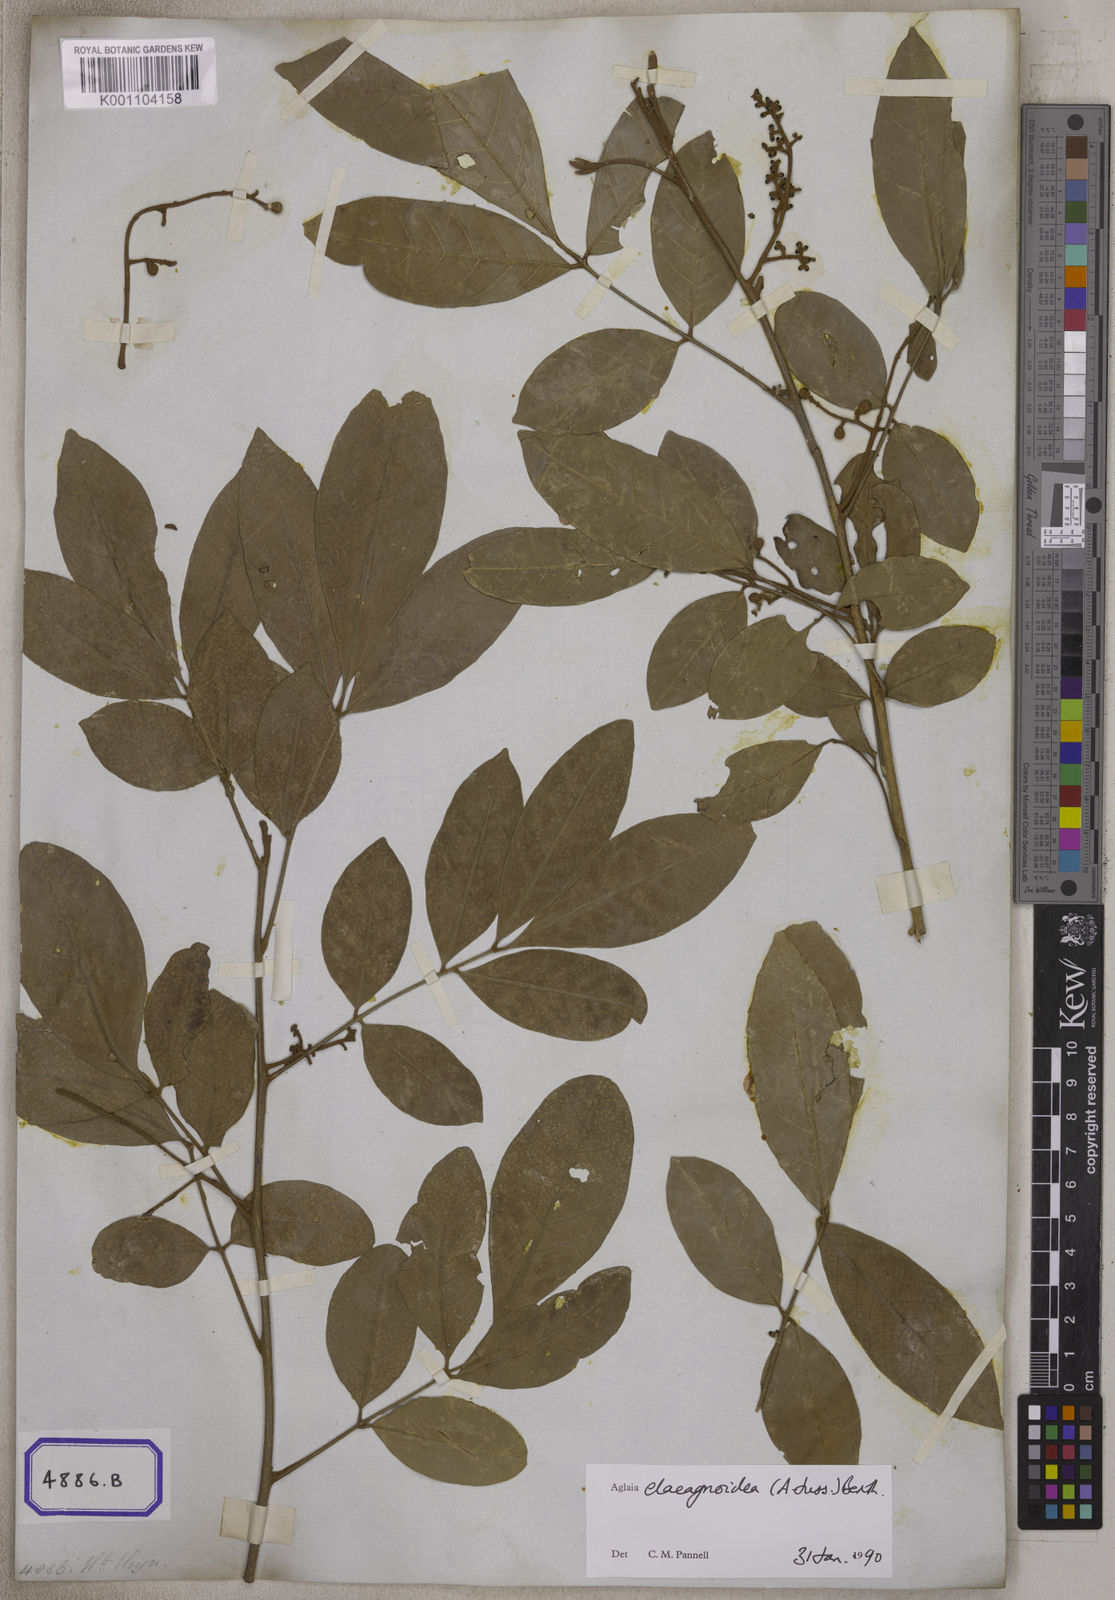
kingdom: Plantae
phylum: Tracheophyta
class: Magnoliopsida
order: Sapindales
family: Meliaceae
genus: Aglaia
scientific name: Aglaia elaeagnoidea
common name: Droopyleaf
